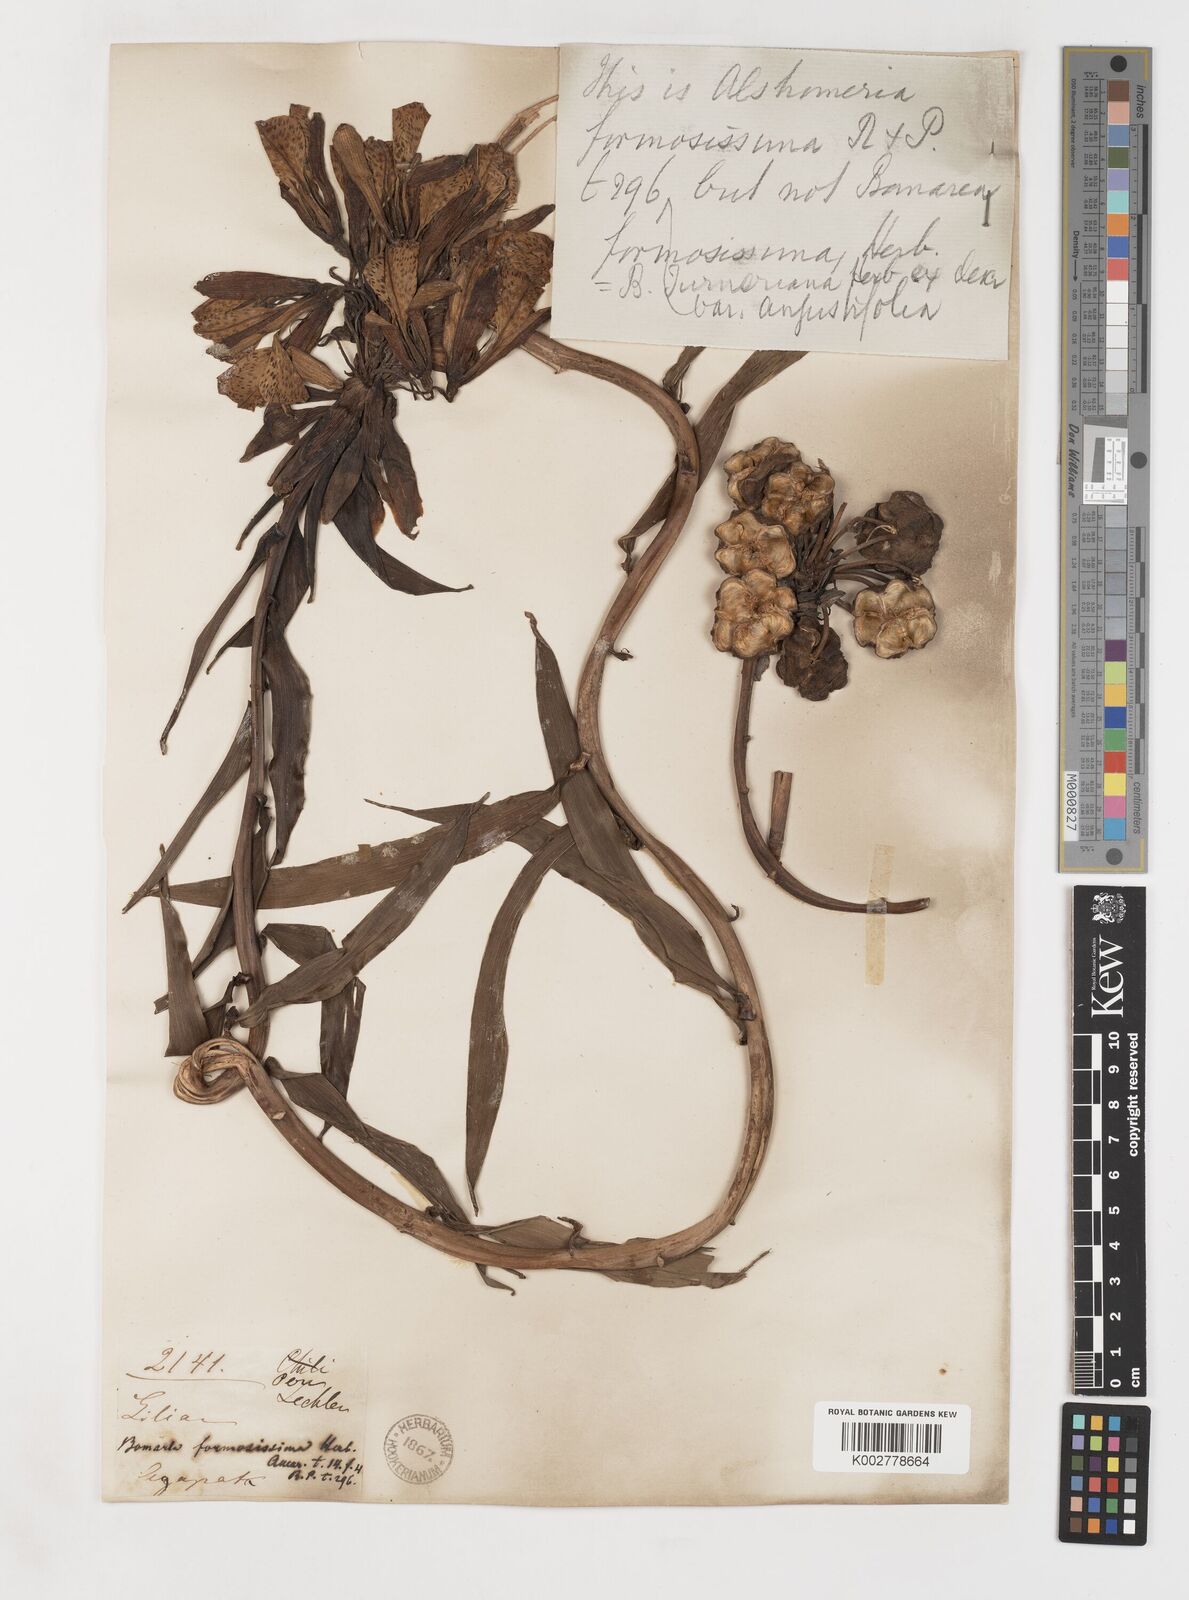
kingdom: Plantae
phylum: Tracheophyta
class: Liliopsida
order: Liliales
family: Alstroemeriaceae
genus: Bomarea
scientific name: Bomarea formosissima
